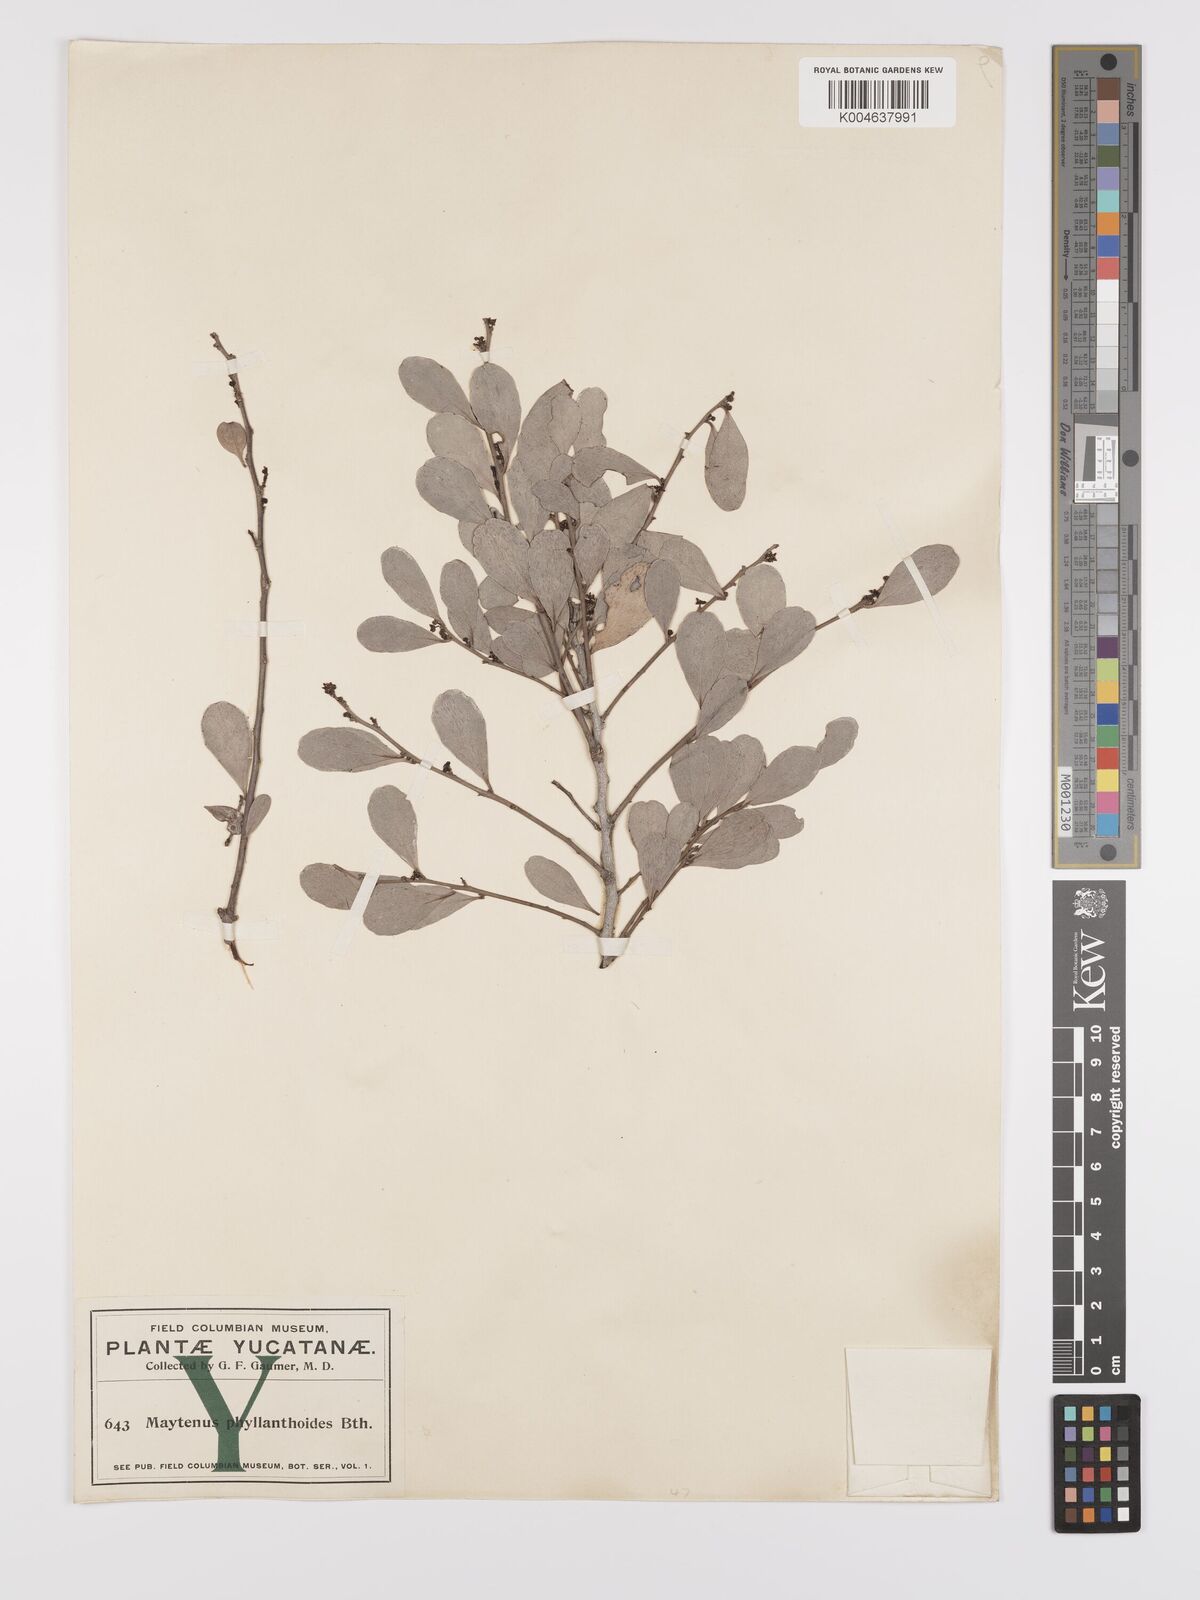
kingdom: Plantae
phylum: Tracheophyta
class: Magnoliopsida
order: Celastrales
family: Celastraceae
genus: Tricerma
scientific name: Tricerma phyllanthoides
